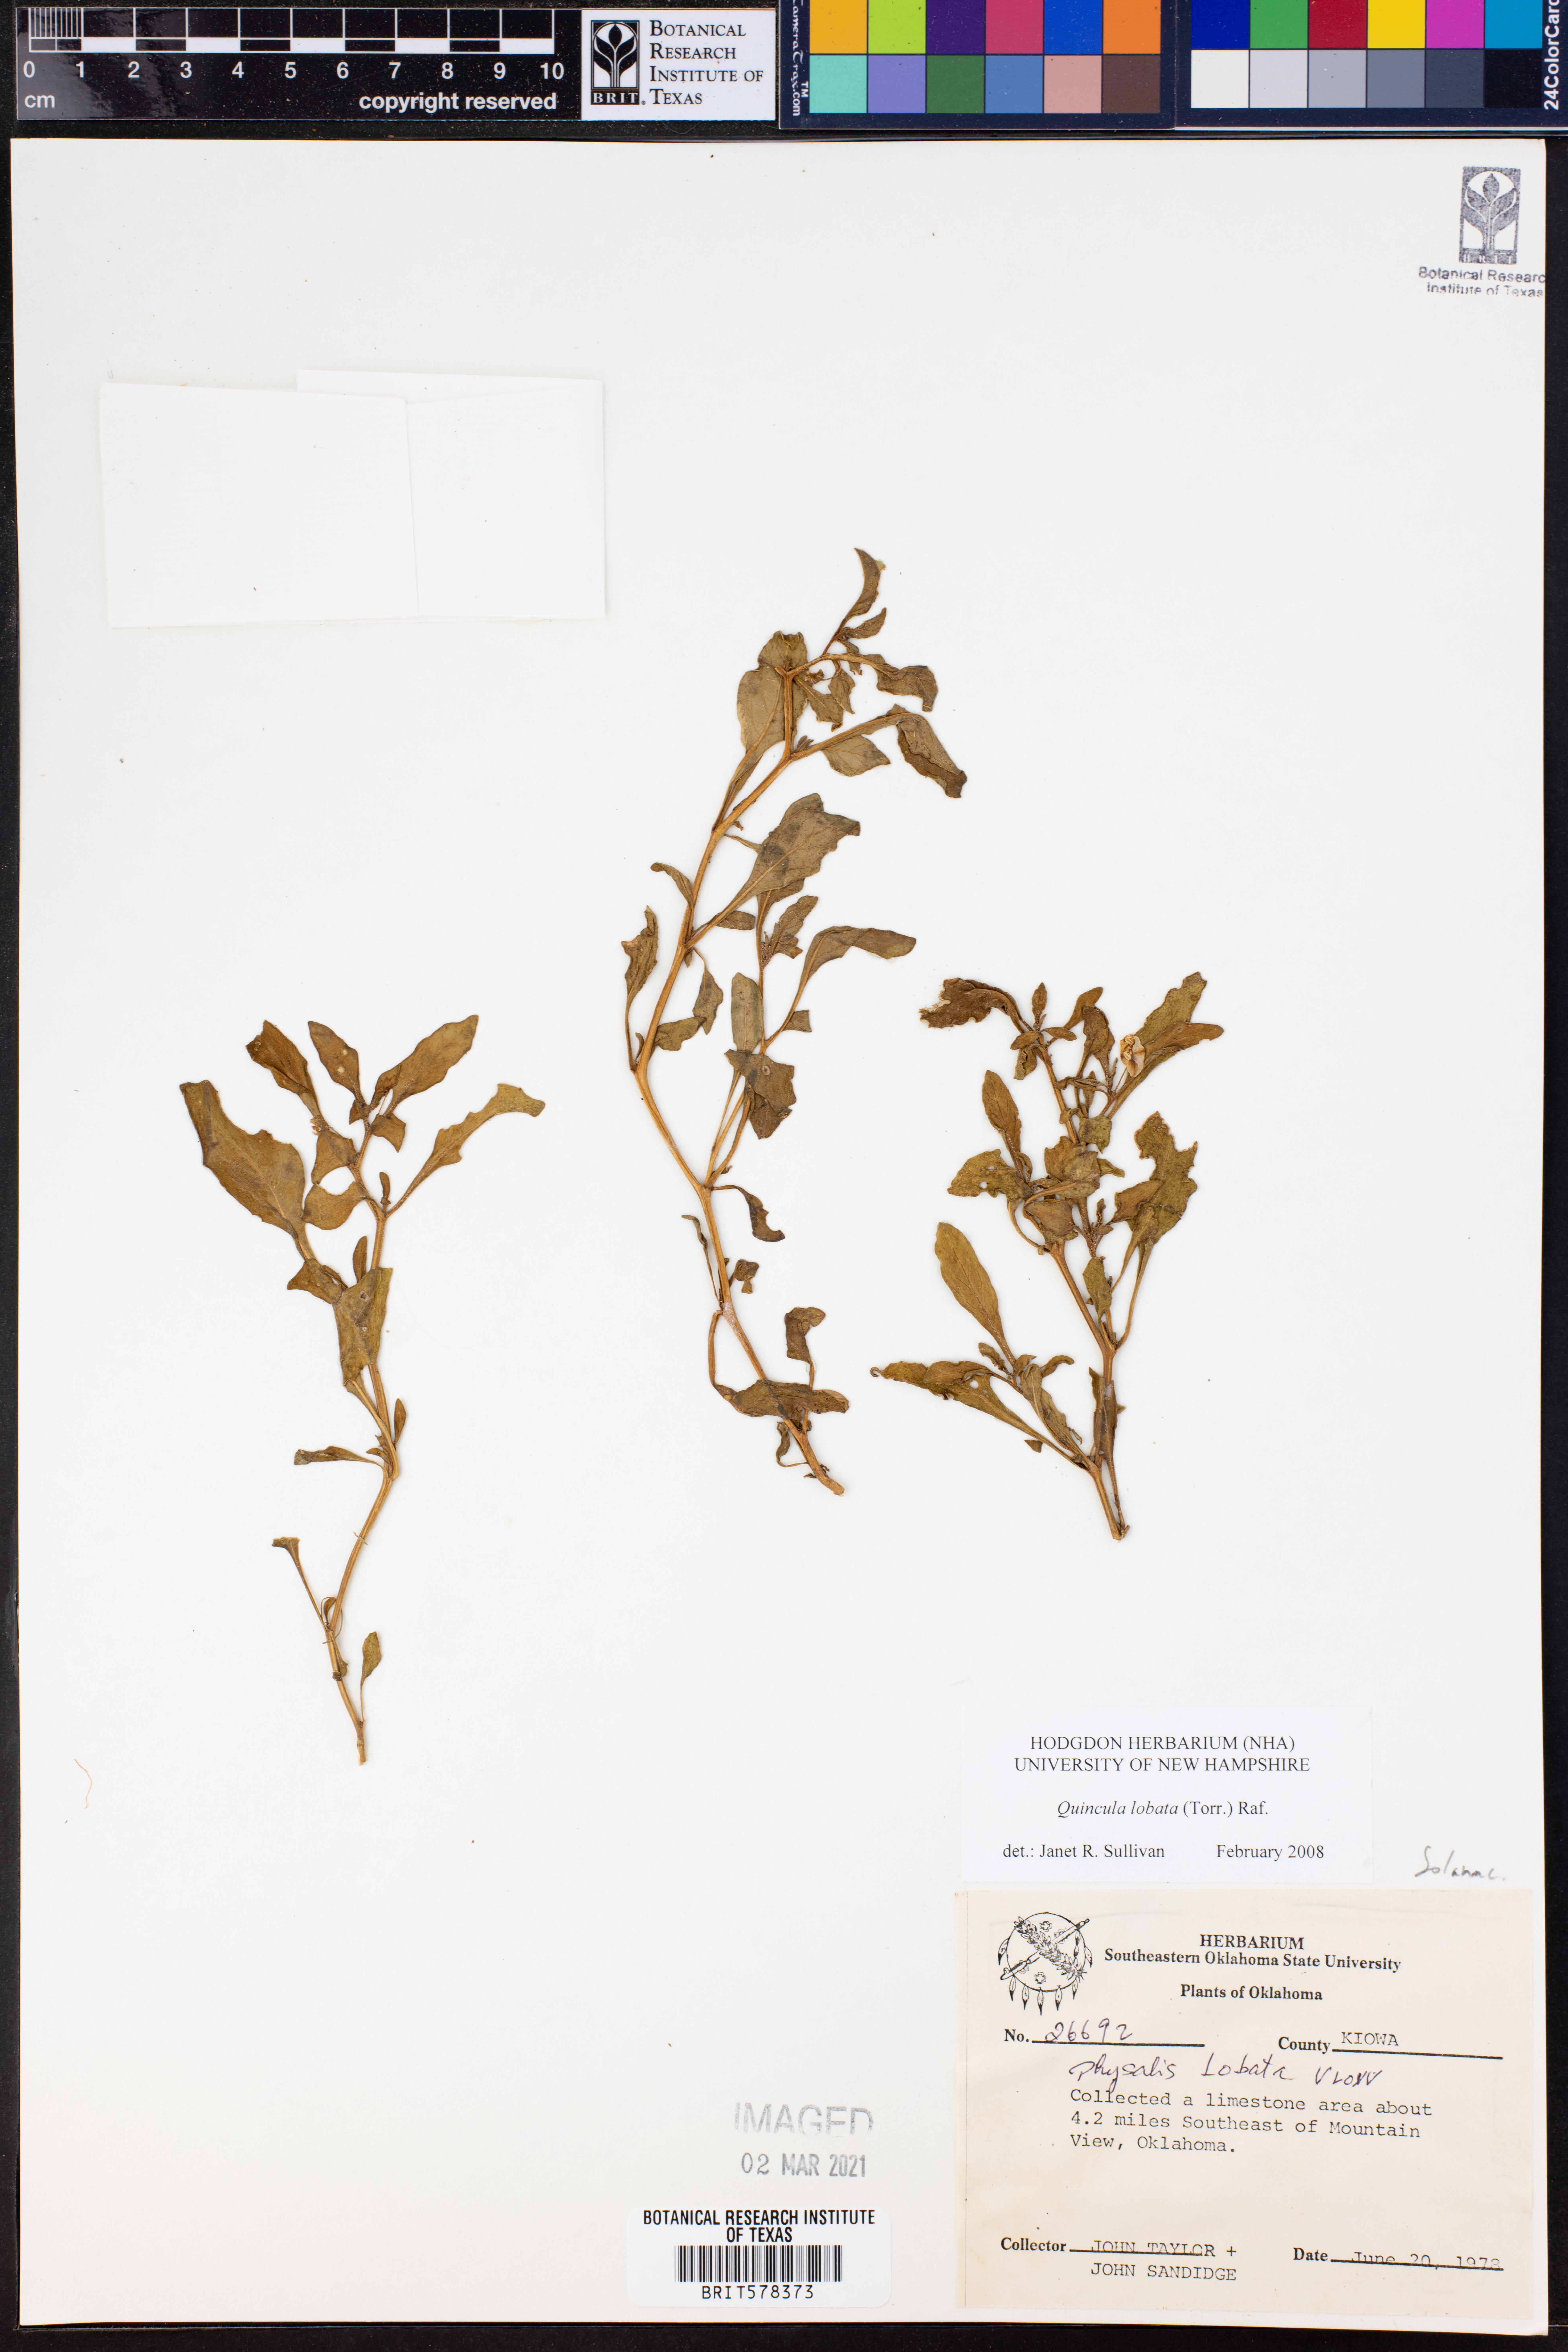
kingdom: Plantae
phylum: Tracheophyta
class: Magnoliopsida
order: Solanales
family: Solanaceae
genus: Quincula
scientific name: Quincula lobata
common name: Purple-ground-cherry
